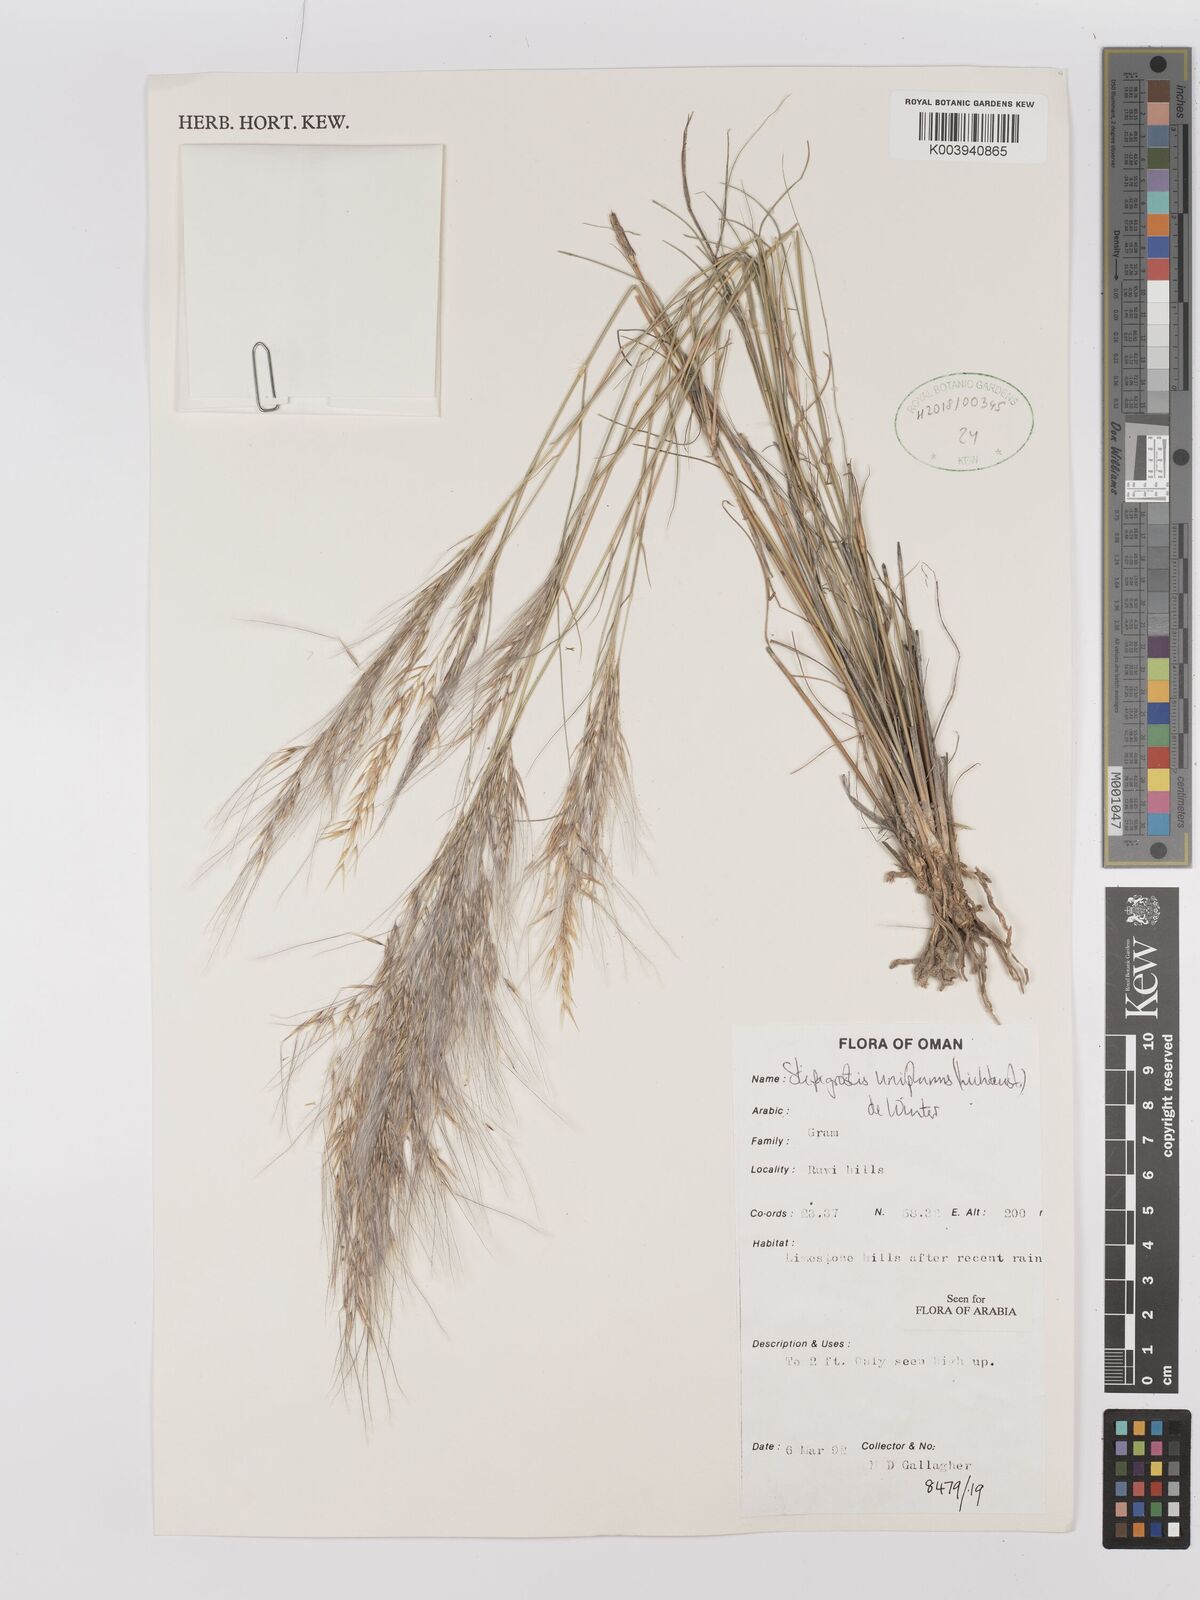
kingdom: Plantae
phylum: Tracheophyta
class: Liliopsida
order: Poales
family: Poaceae
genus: Stipagrostis
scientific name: Stipagrostis uniplumis
